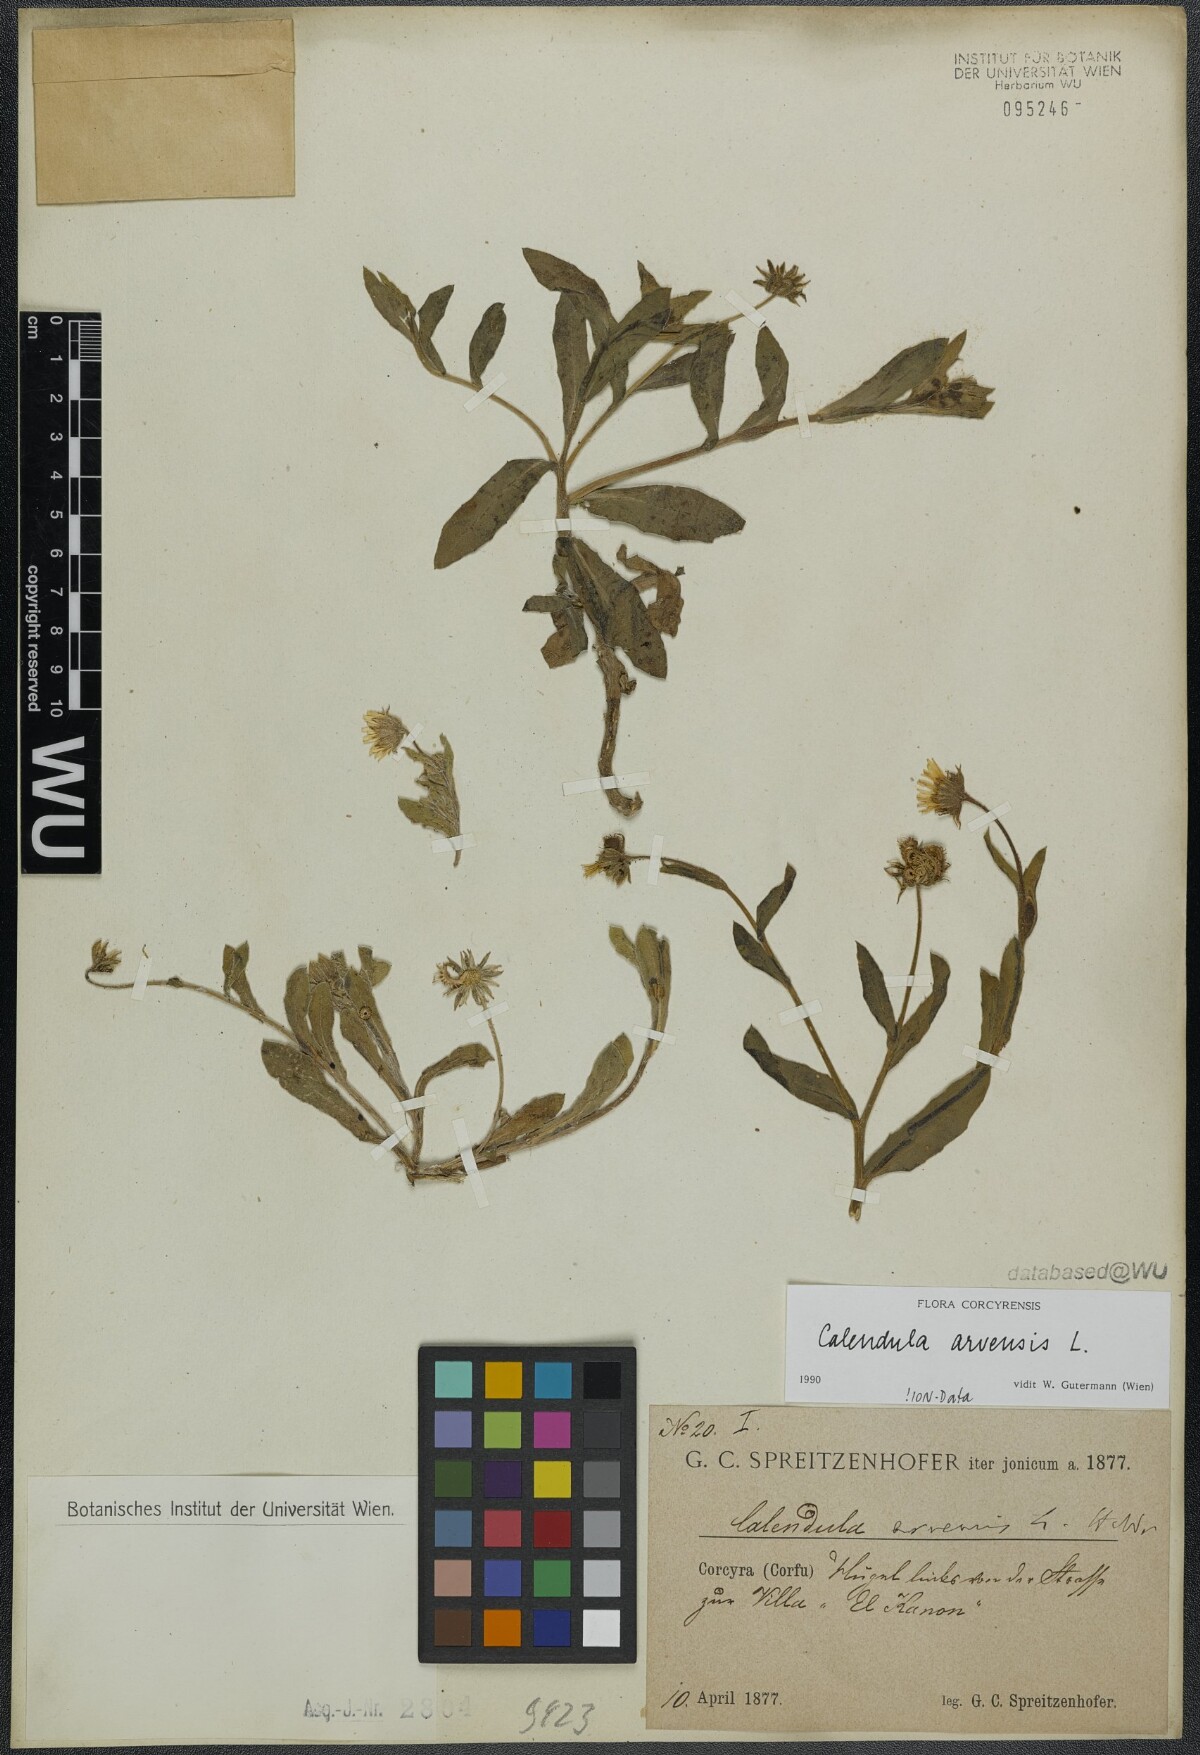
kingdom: Plantae
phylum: Tracheophyta
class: Magnoliopsida
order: Asterales
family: Asteraceae
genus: Calendula
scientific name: Calendula arvensis
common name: Field marigold
